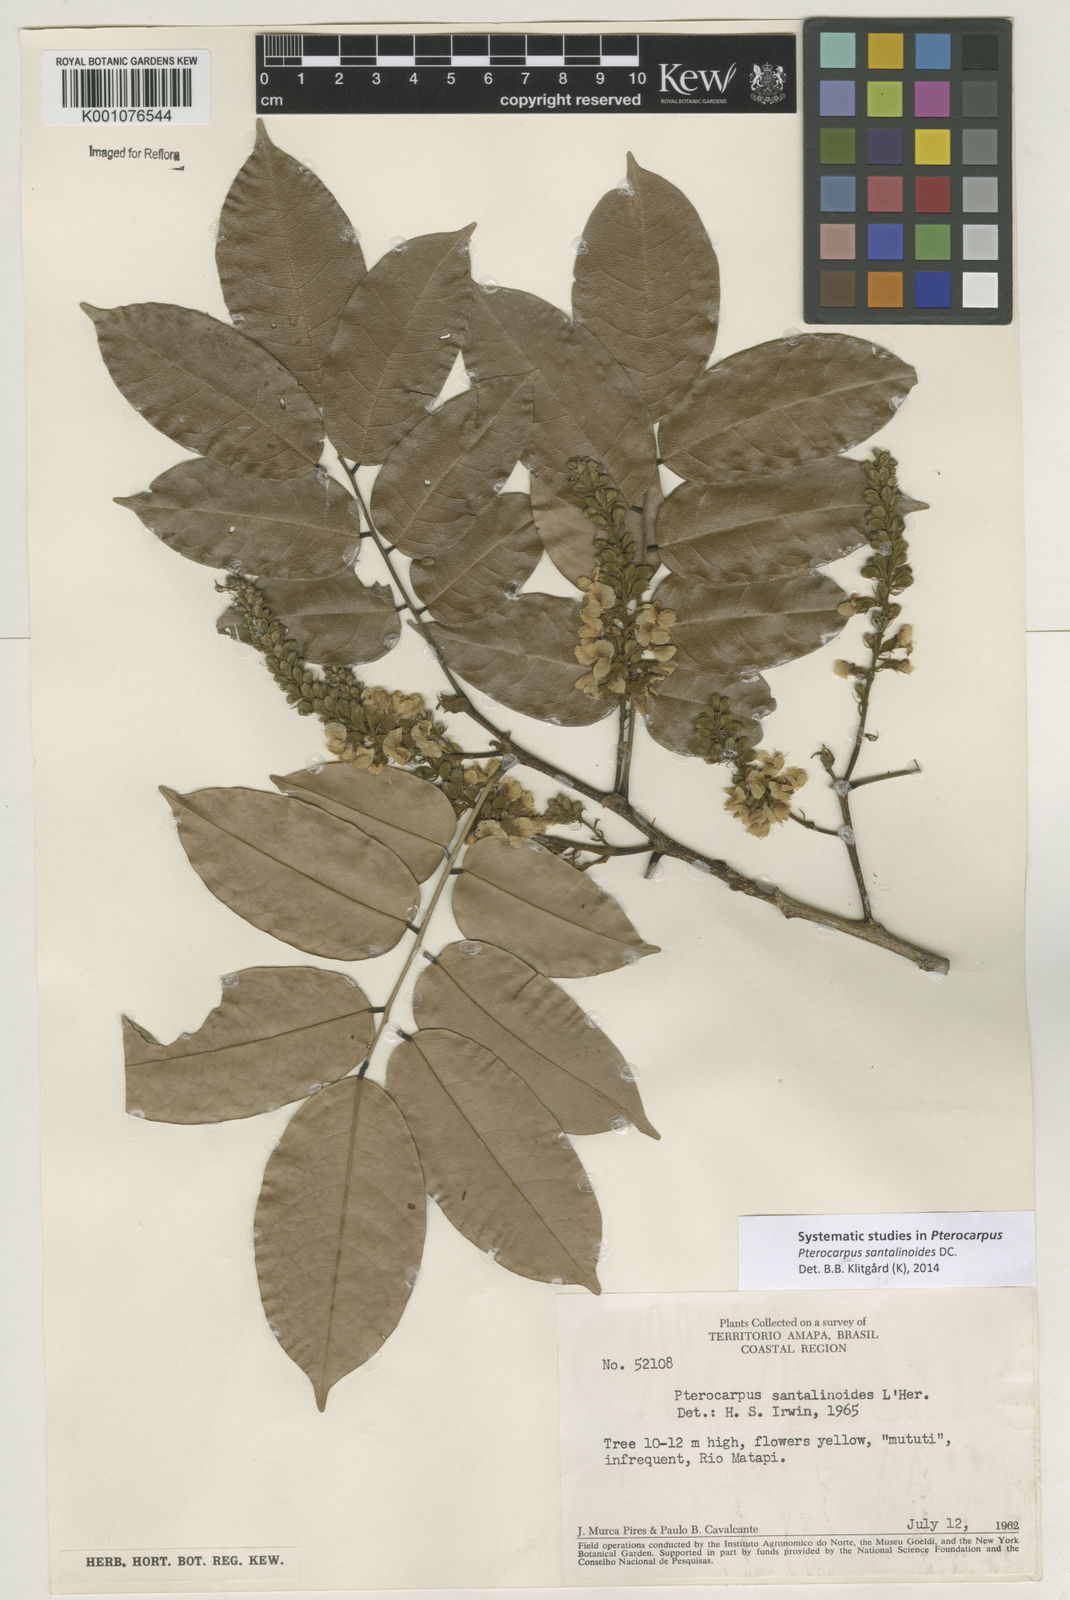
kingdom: Plantae
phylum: Tracheophyta
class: Magnoliopsida
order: Fabales
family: Fabaceae
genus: Pterocarpus
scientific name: Pterocarpus santalinoides
